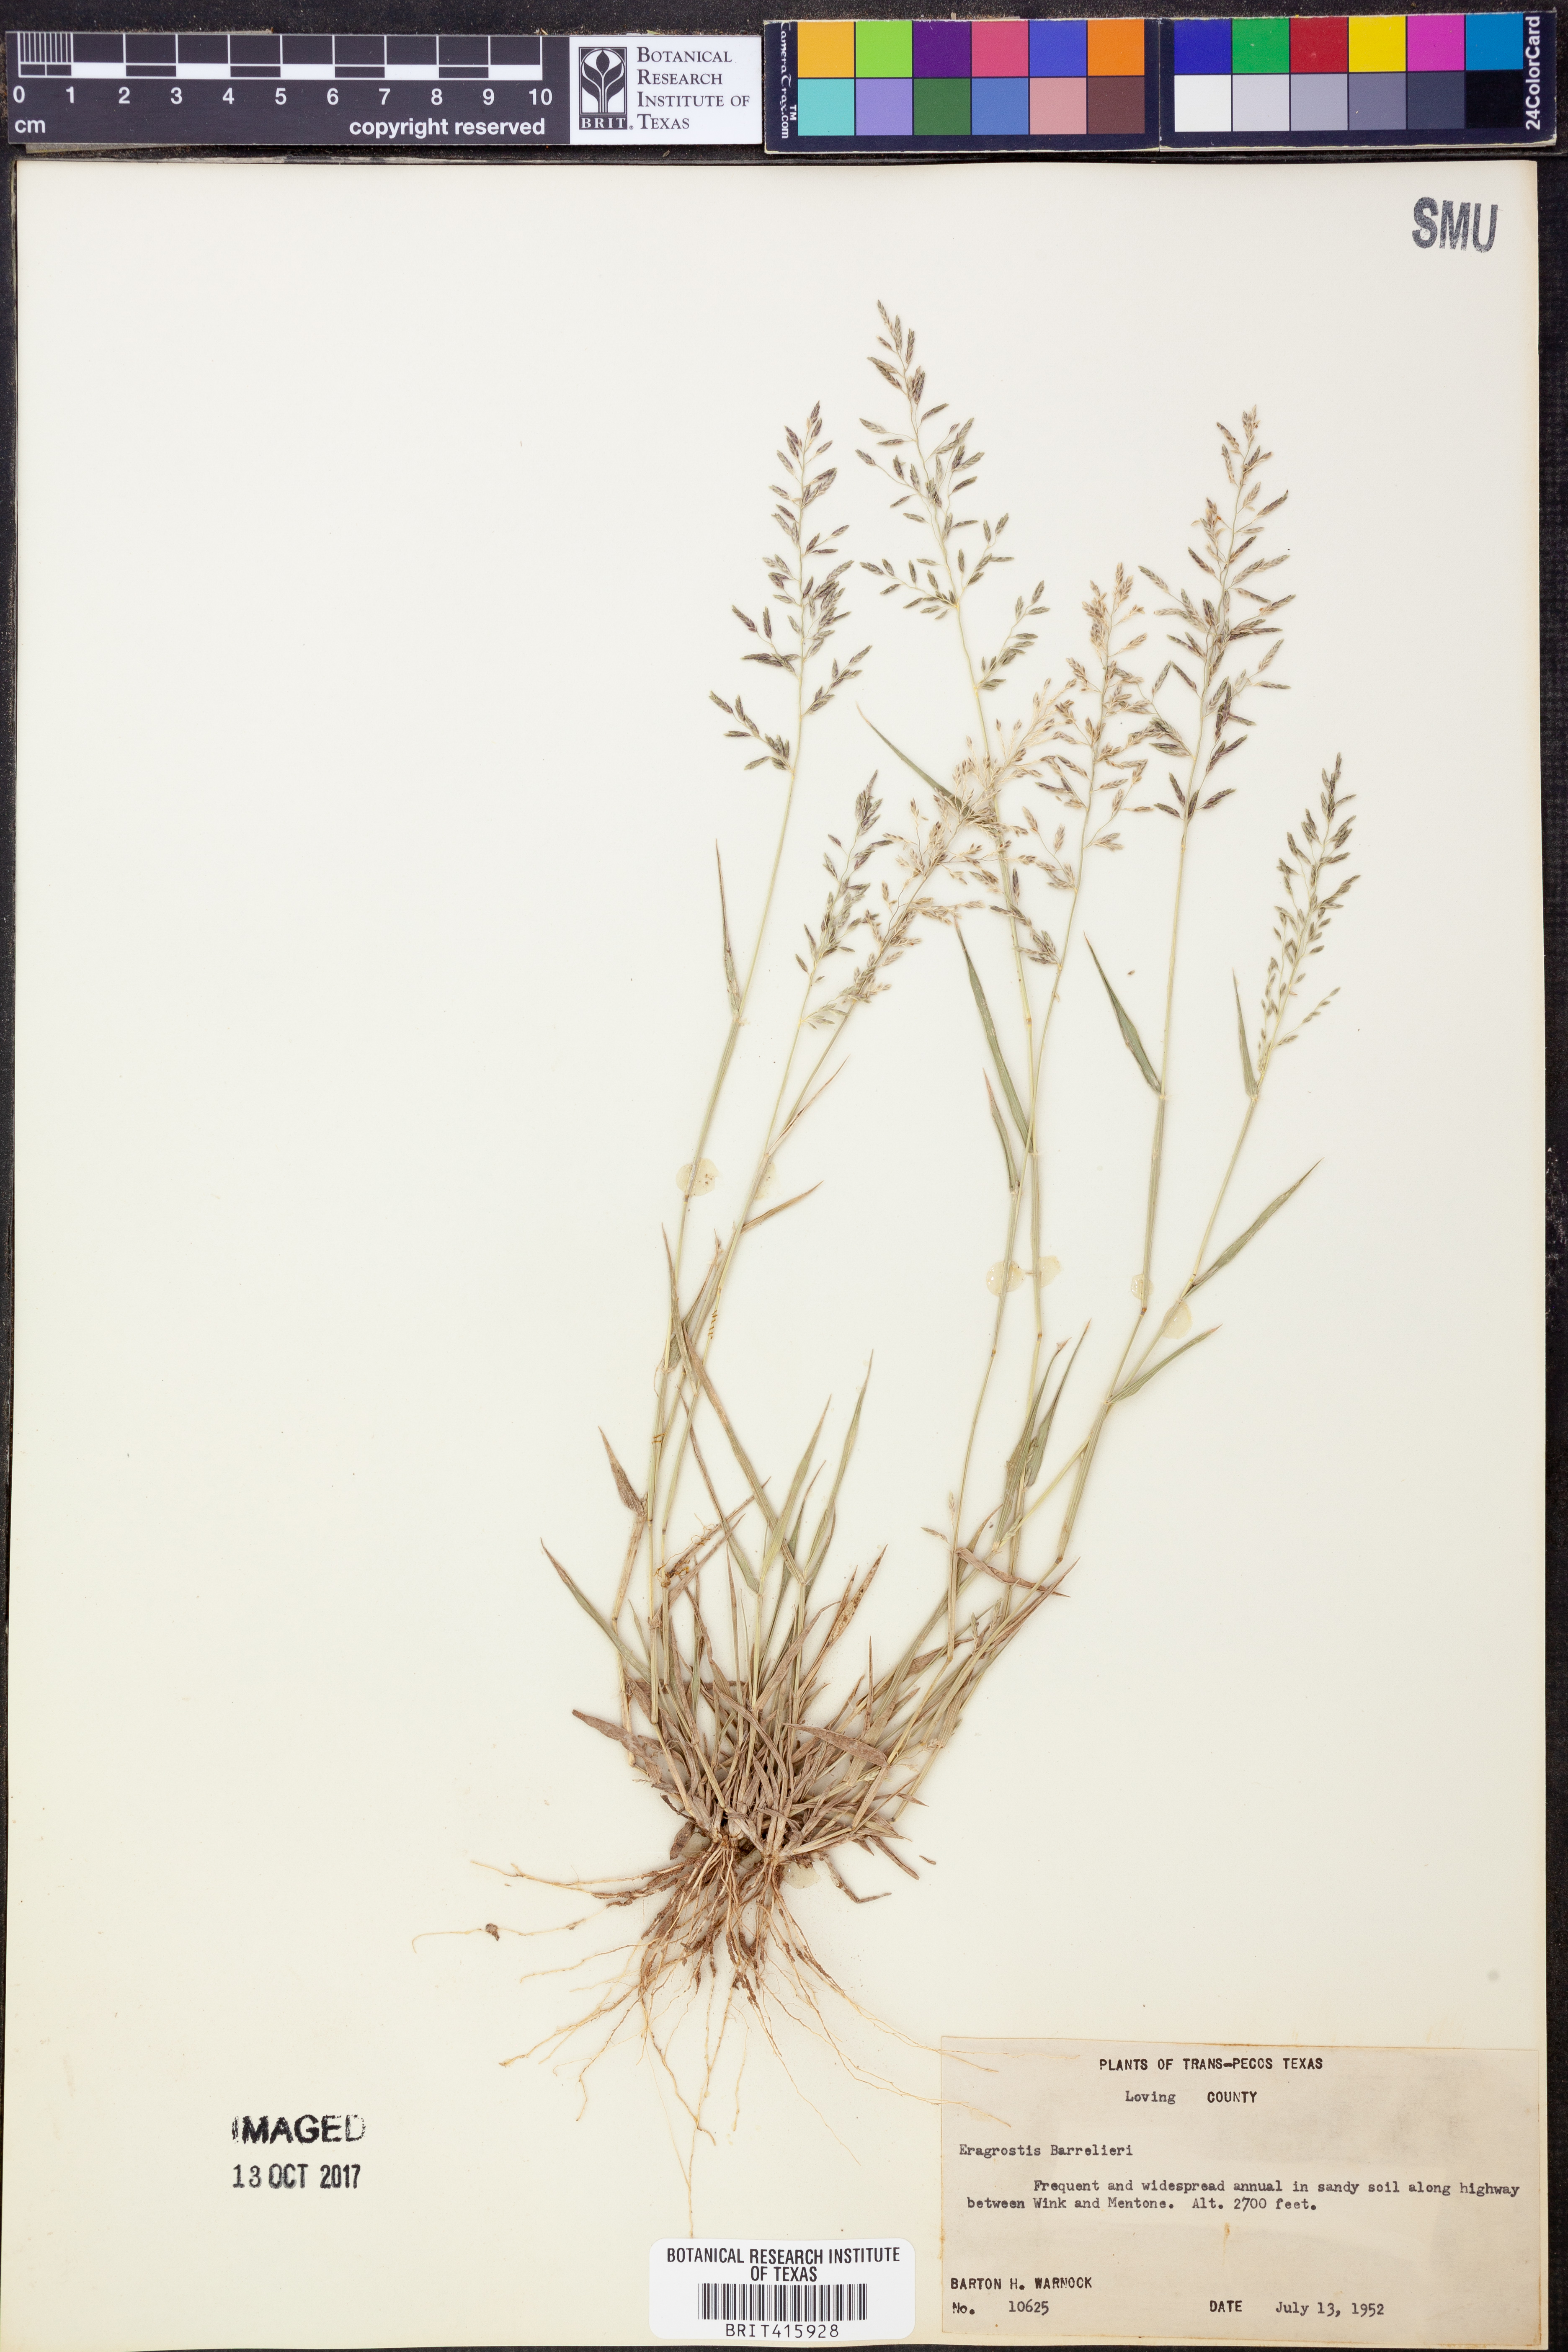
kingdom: Plantae
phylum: Tracheophyta
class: Liliopsida
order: Poales
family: Poaceae
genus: Eragrostis
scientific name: Eragrostis barrelieri
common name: Mediterranean lovegrass
